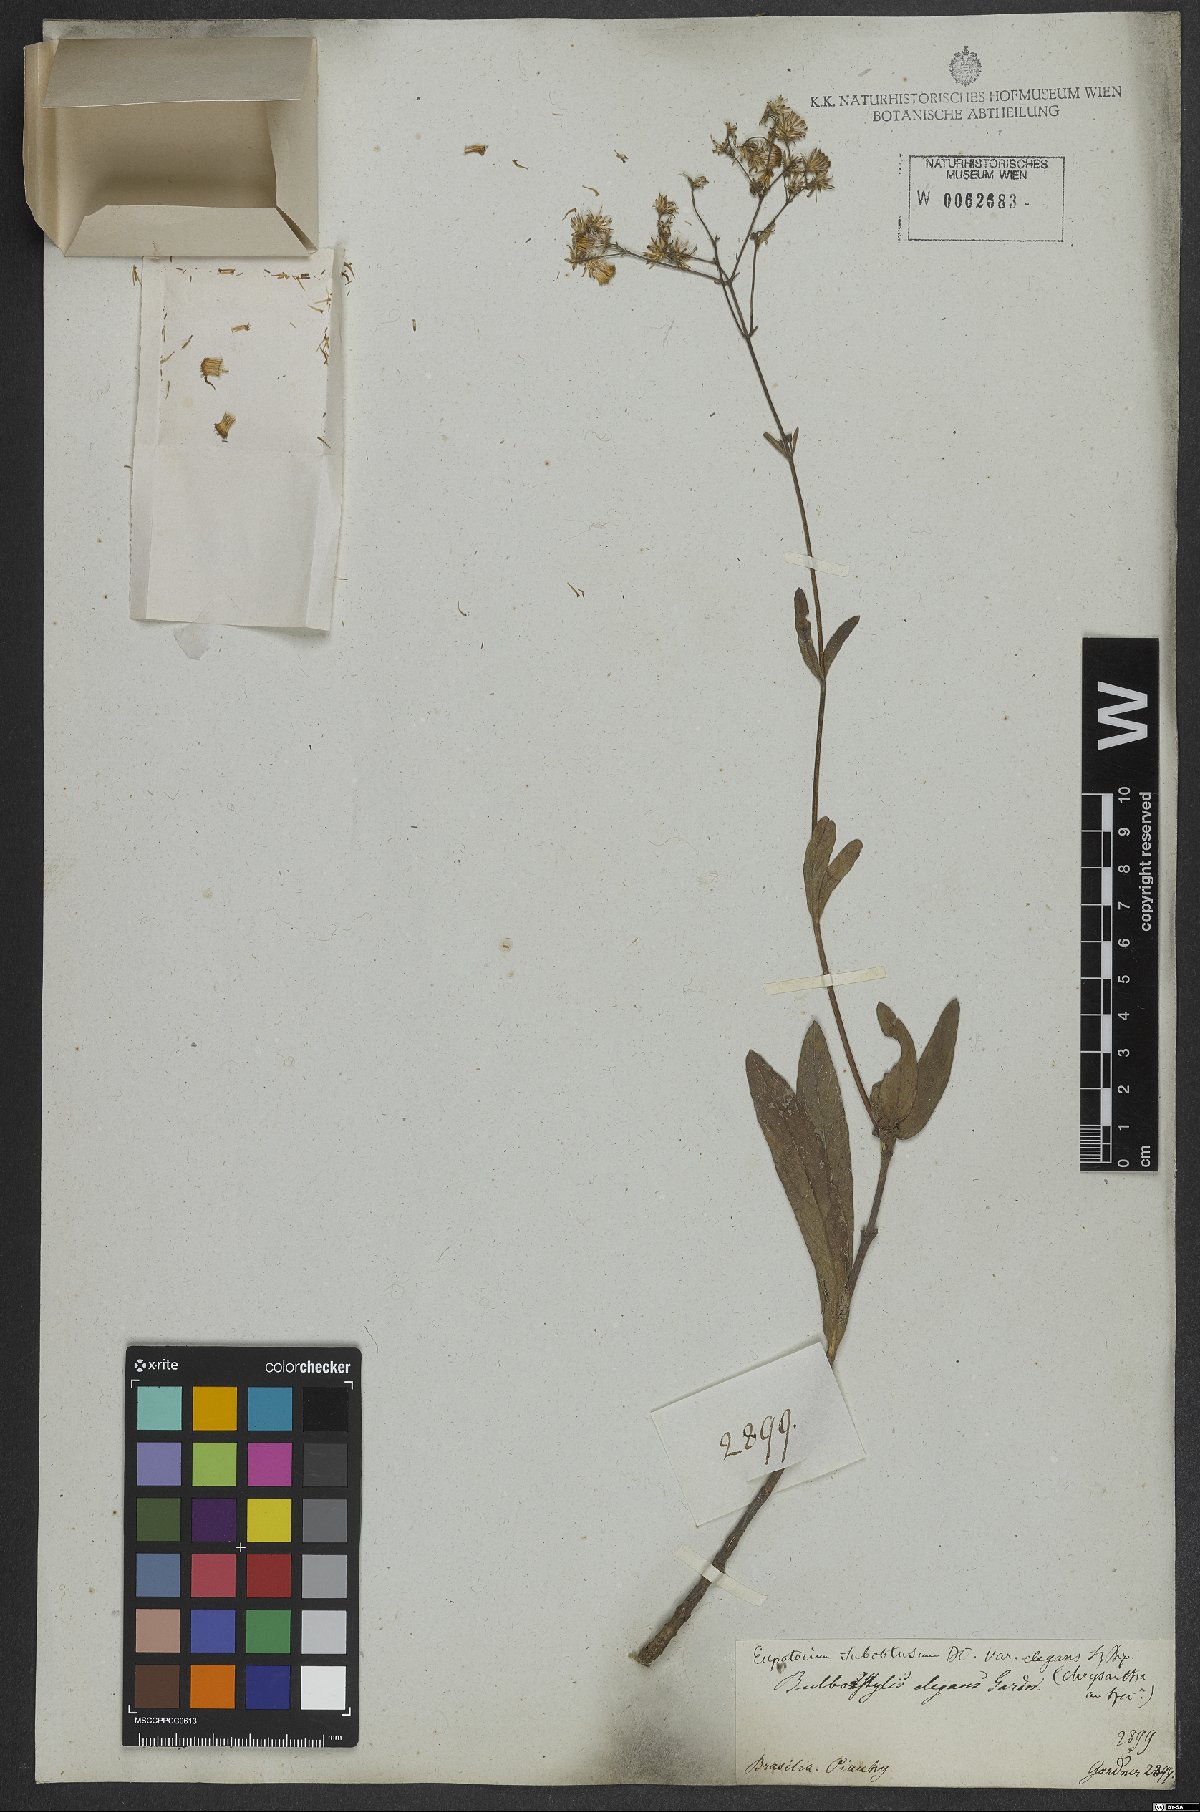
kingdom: Plantae
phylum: Tracheophyta
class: Magnoliopsida
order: Asterales
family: Asteraceae
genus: Ayapana
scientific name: Ayapana amygdalina
